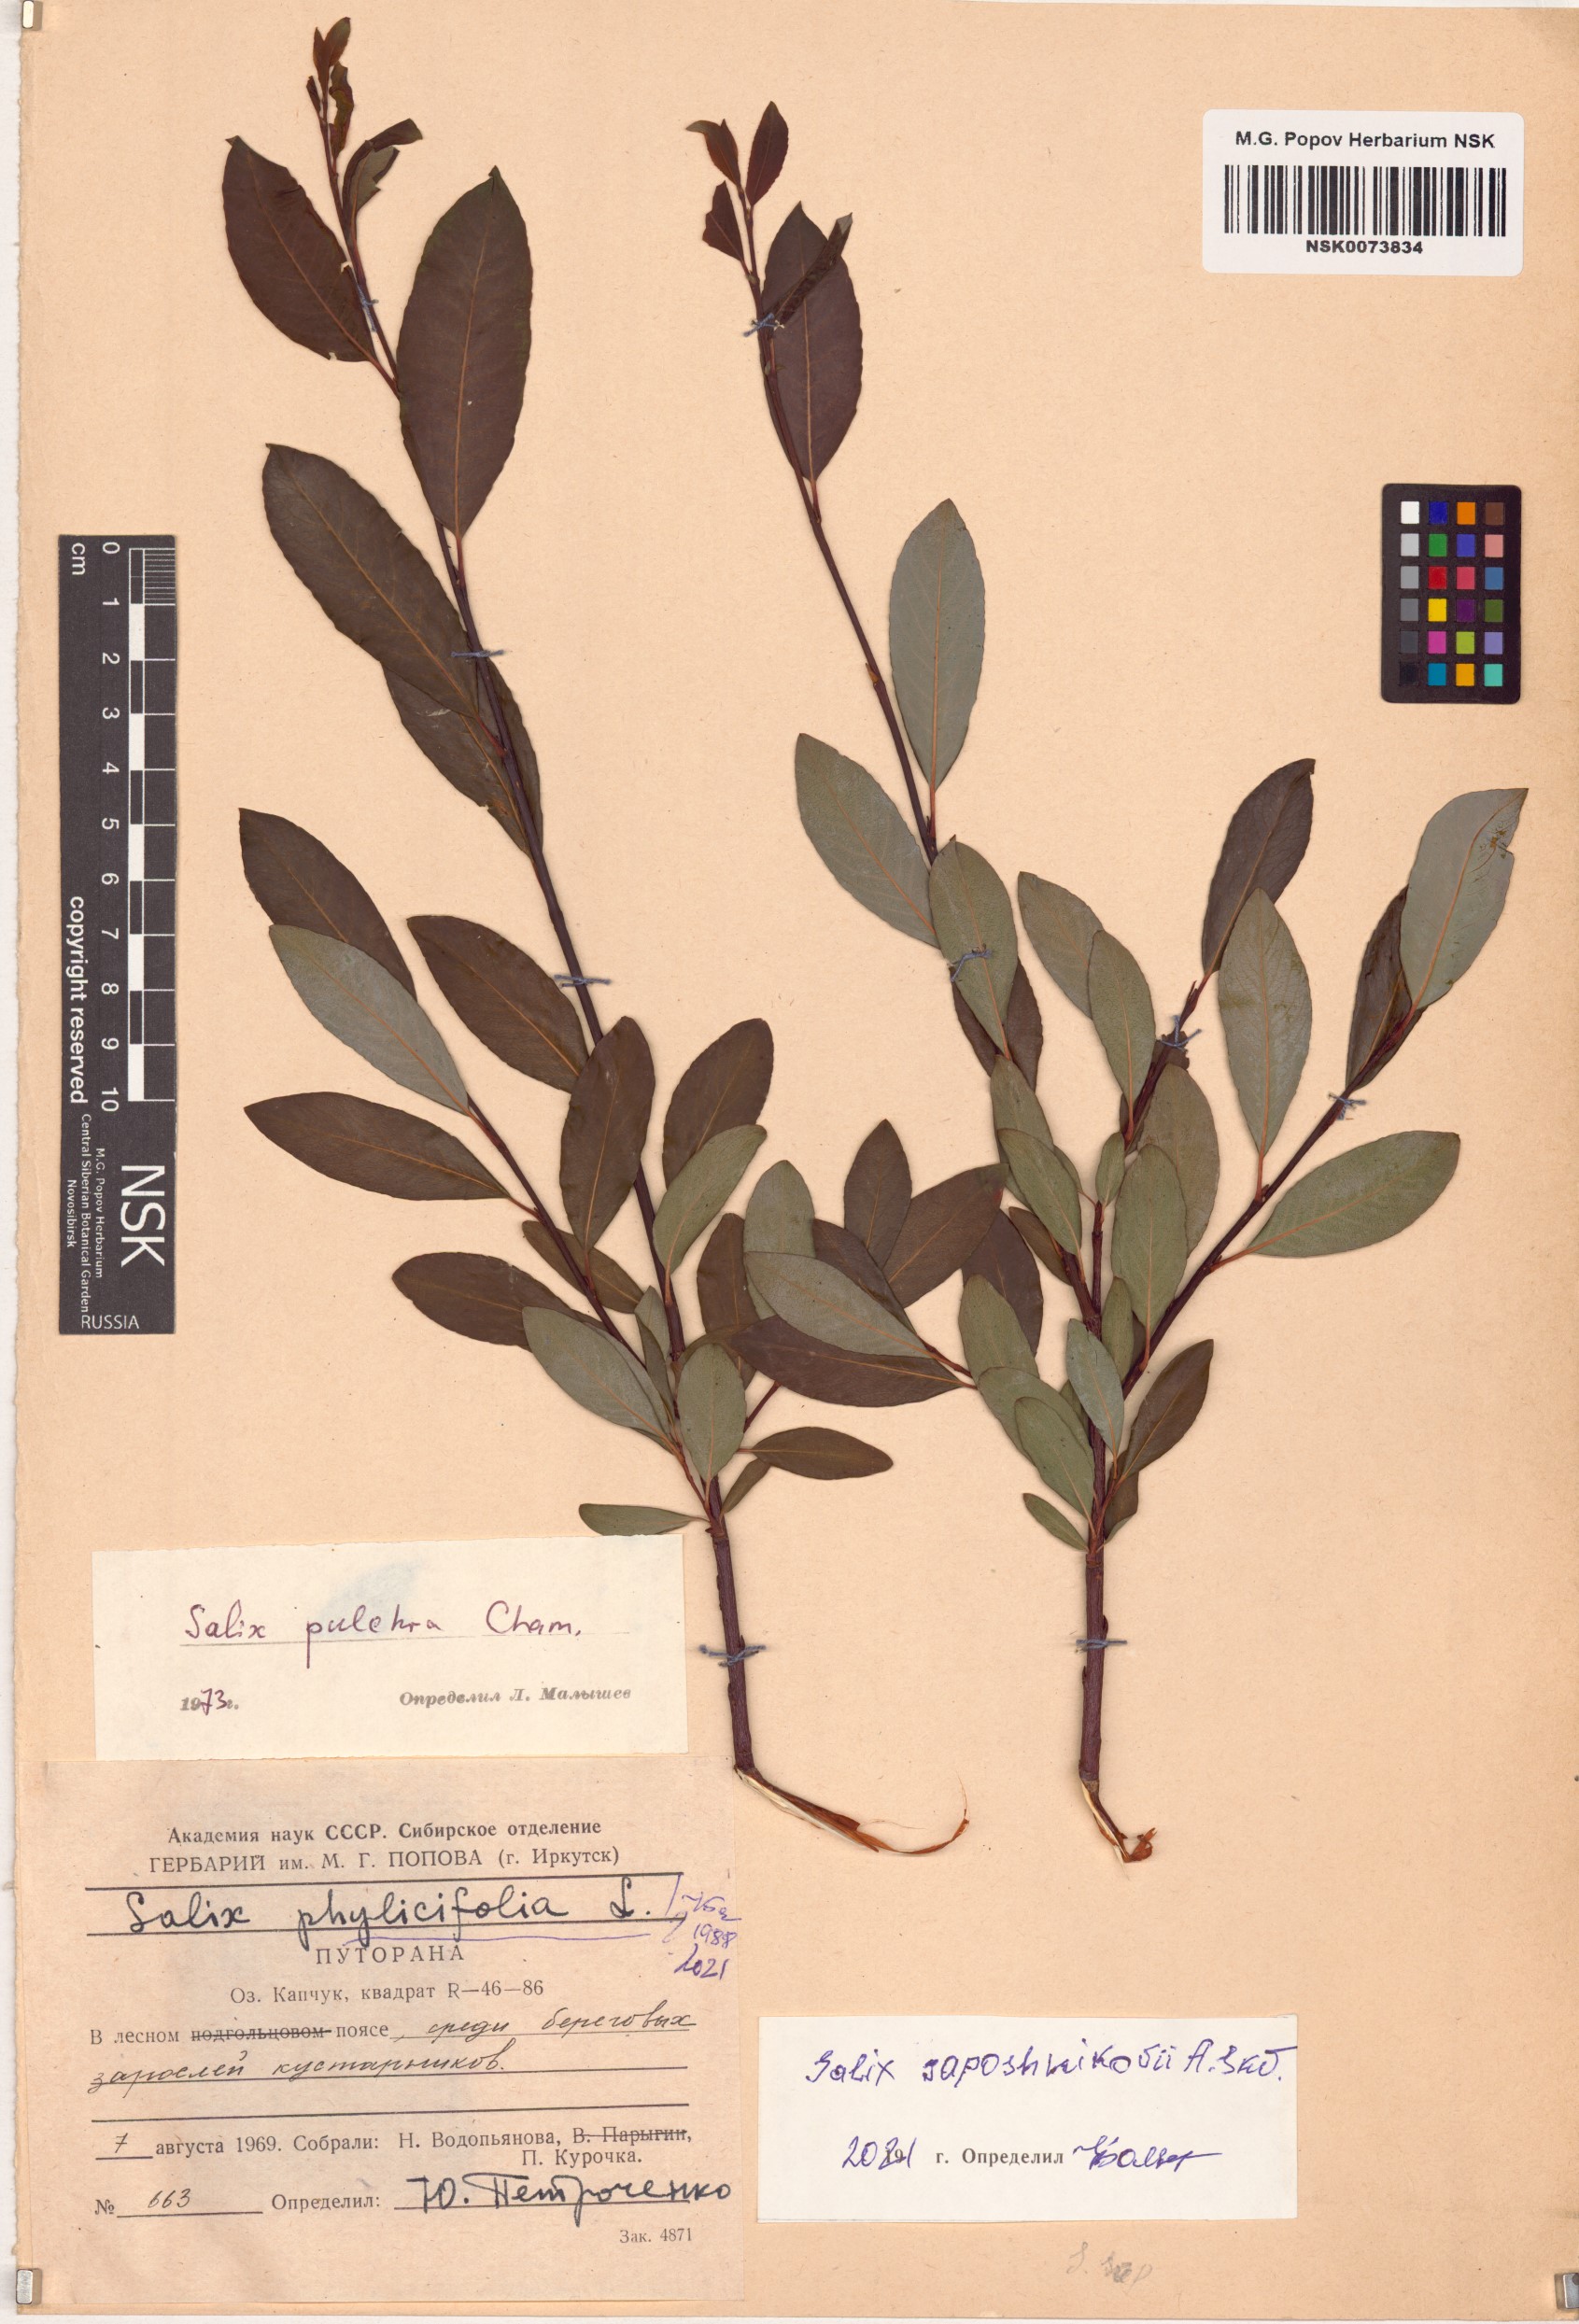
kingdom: Plantae
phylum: Tracheophyta
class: Magnoliopsida
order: Malpighiales
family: Salicaceae
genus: Salix
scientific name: Salix saposhnikovii
